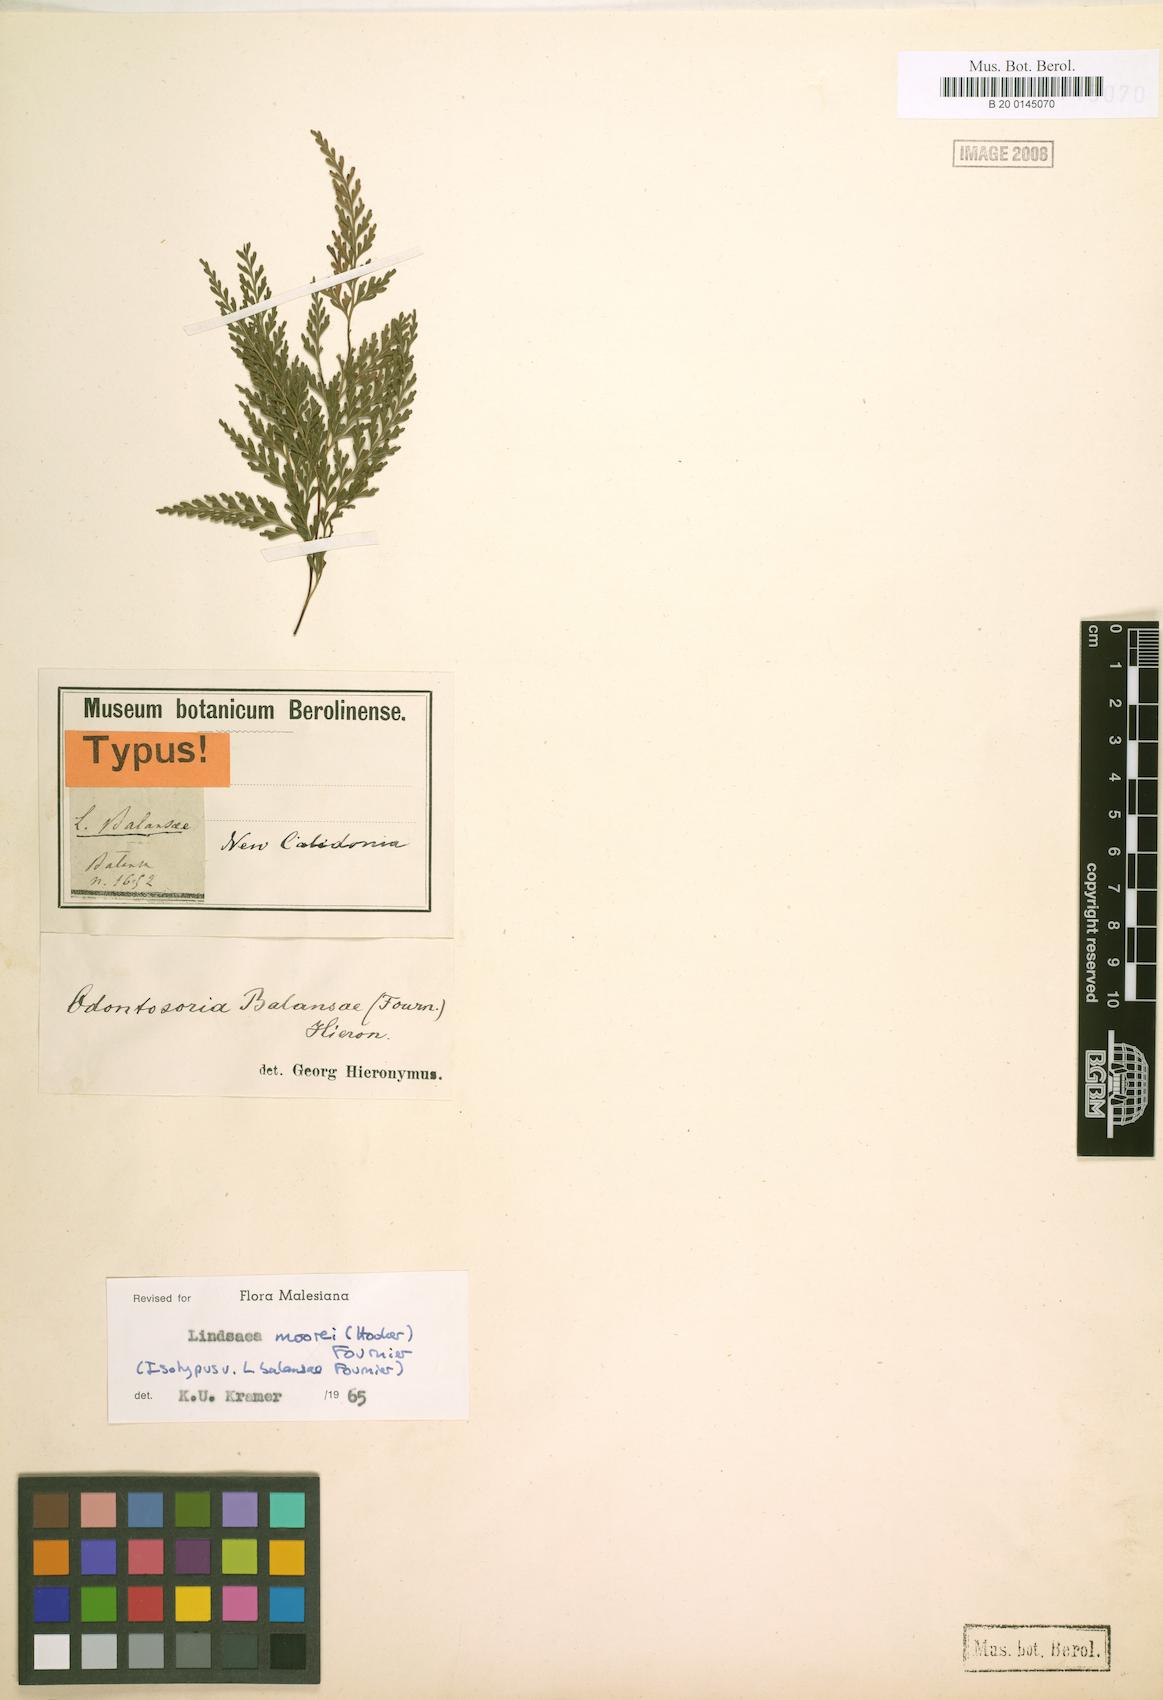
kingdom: Plantae
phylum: Tracheophyta
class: Polypodiopsida
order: Polypodiales
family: Lindsaeaceae
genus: Tapeinidium
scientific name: Tapeinidium moorei
